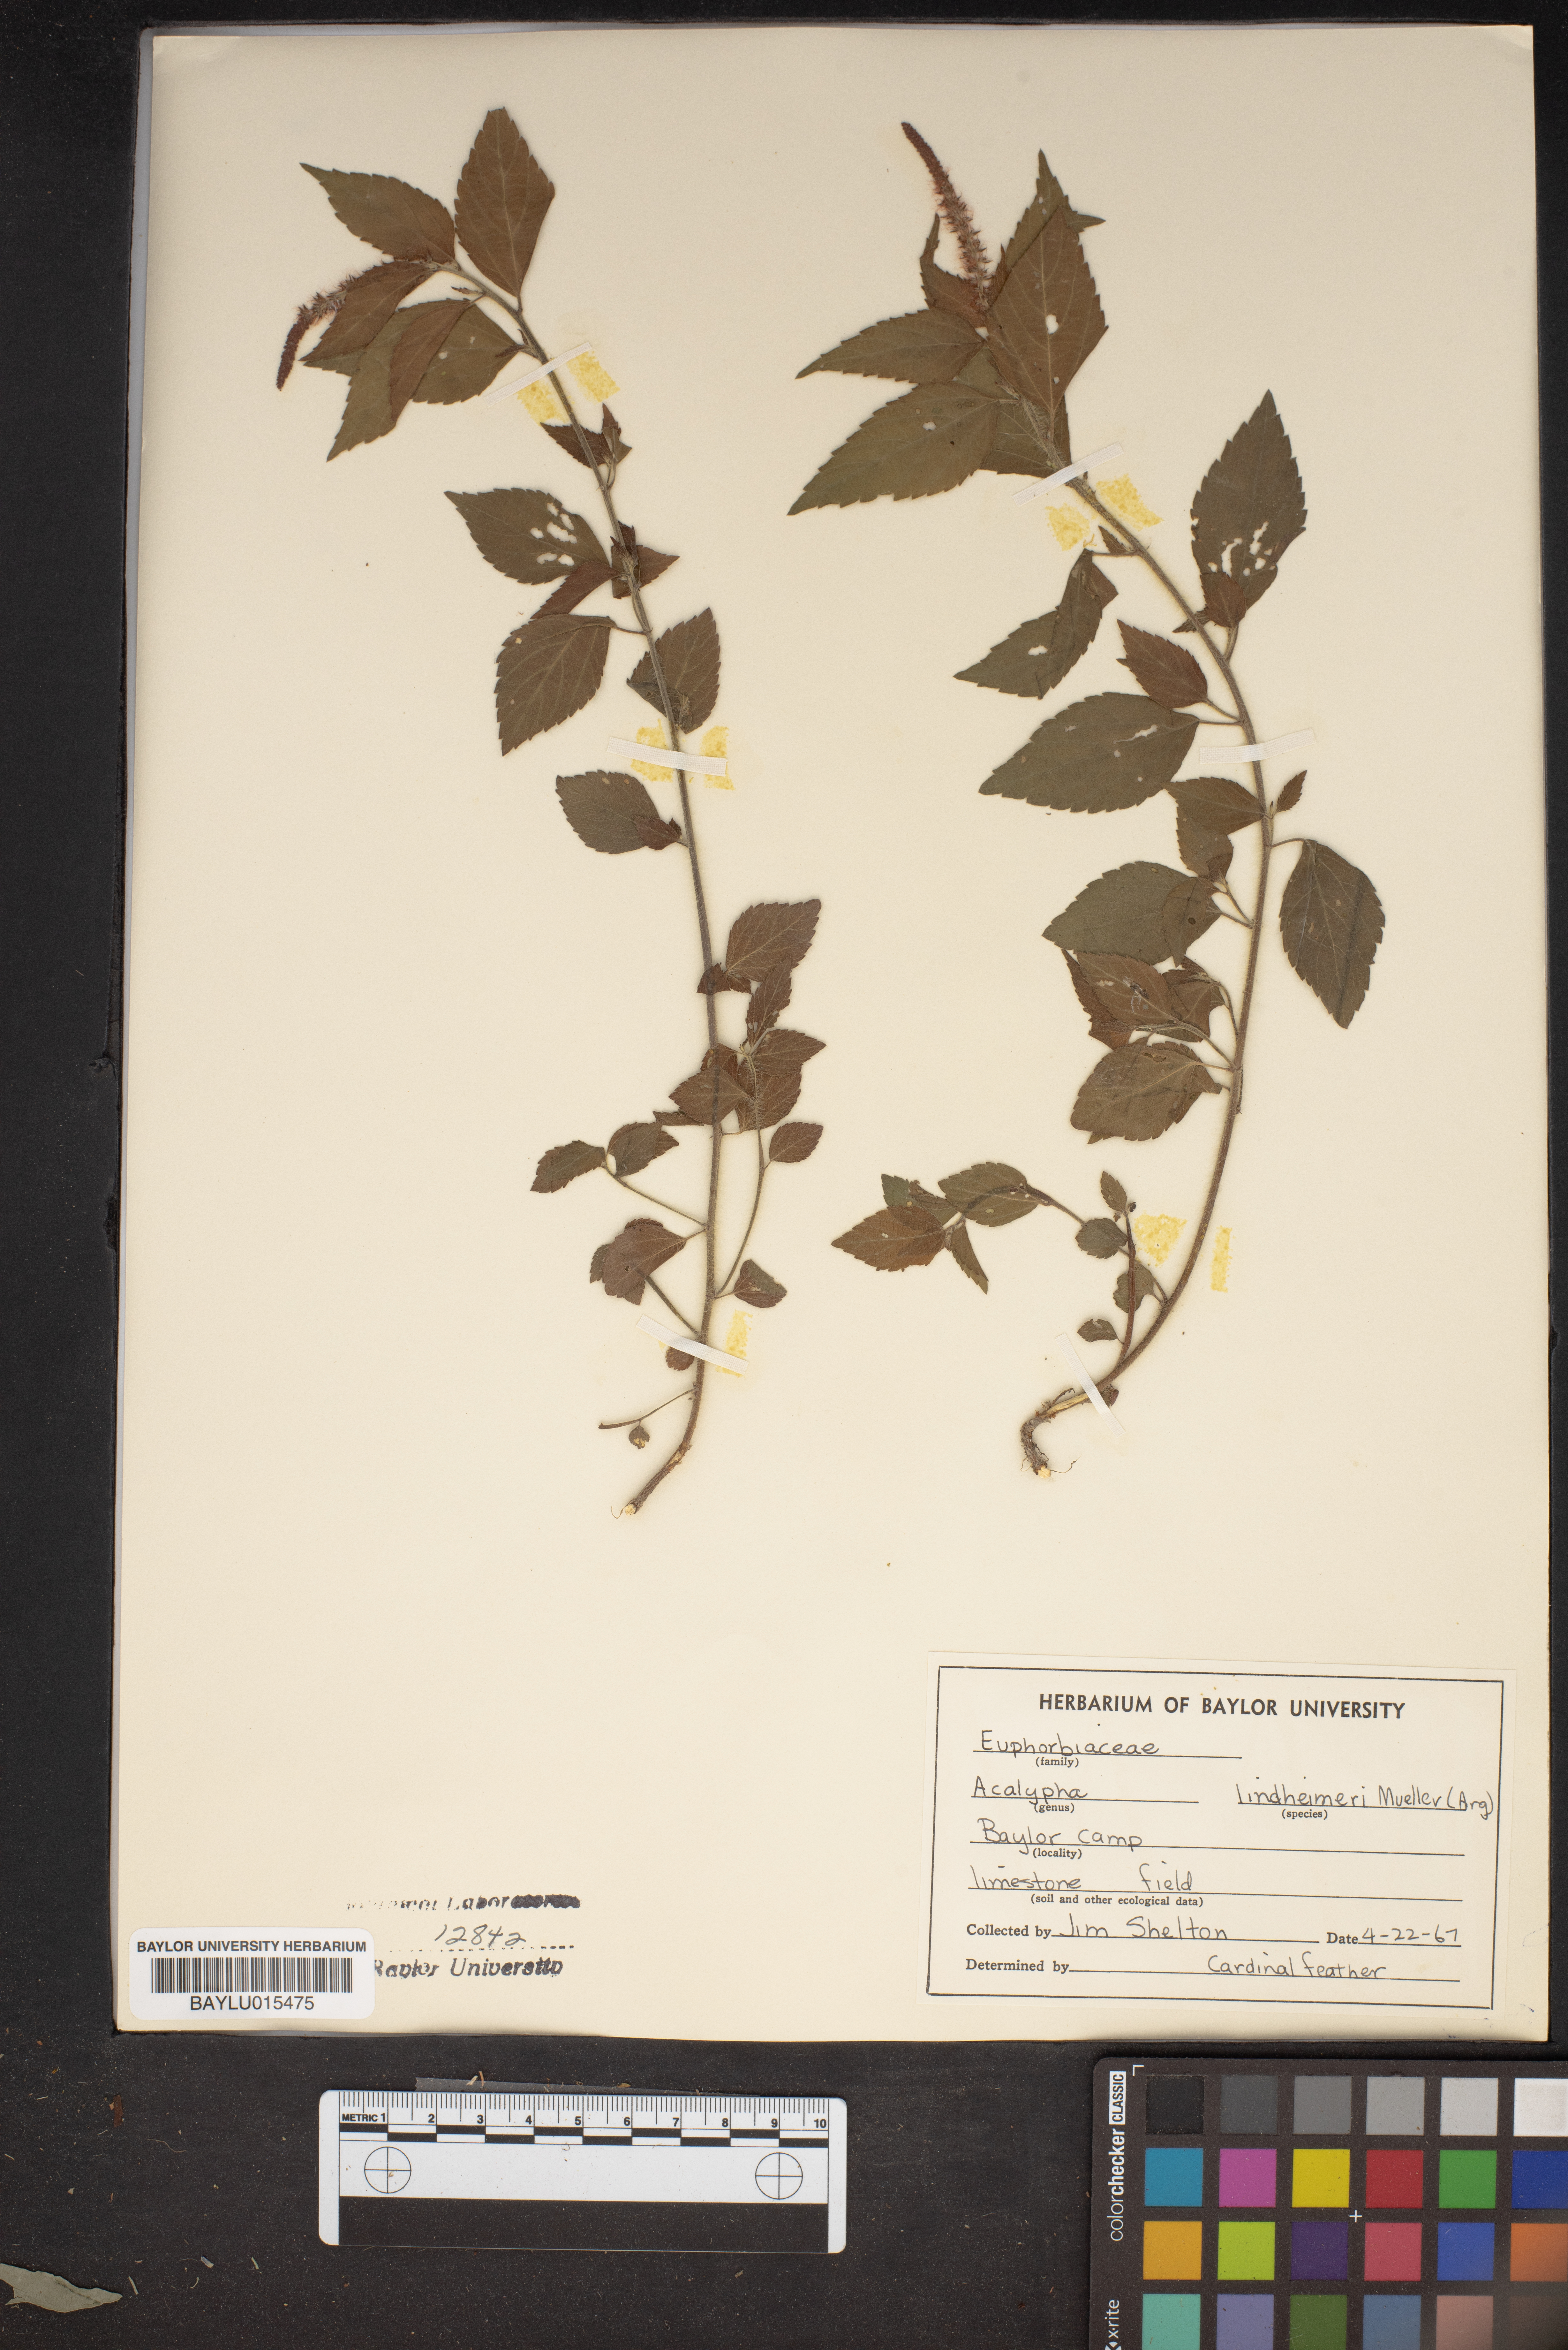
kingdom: Plantae
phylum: Tracheophyta
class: Magnoliopsida
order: Malpighiales
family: Euphorbiaceae
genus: Acalypha
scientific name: Acalypha phleoides
